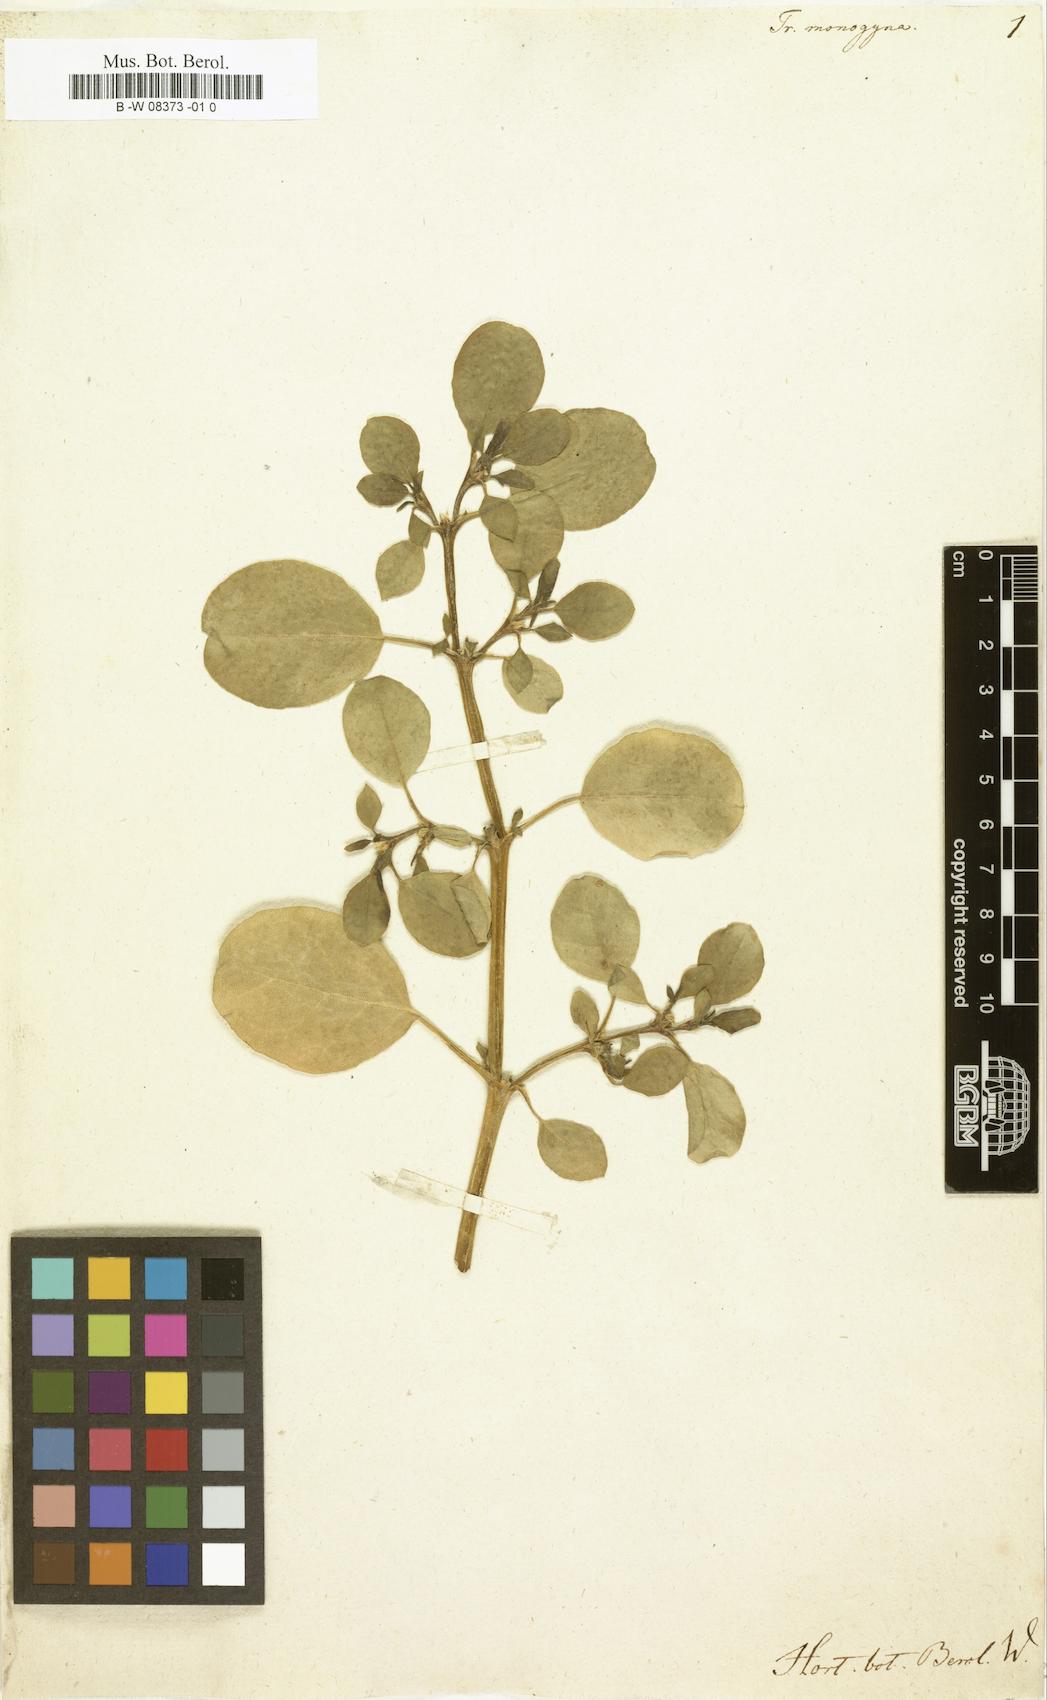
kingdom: Plantae
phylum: Tracheophyta
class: Magnoliopsida
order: Caryophyllales
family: Aizoaceae
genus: Trianthema
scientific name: Trianthema portulacastrum
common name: Desert horsepurslane
